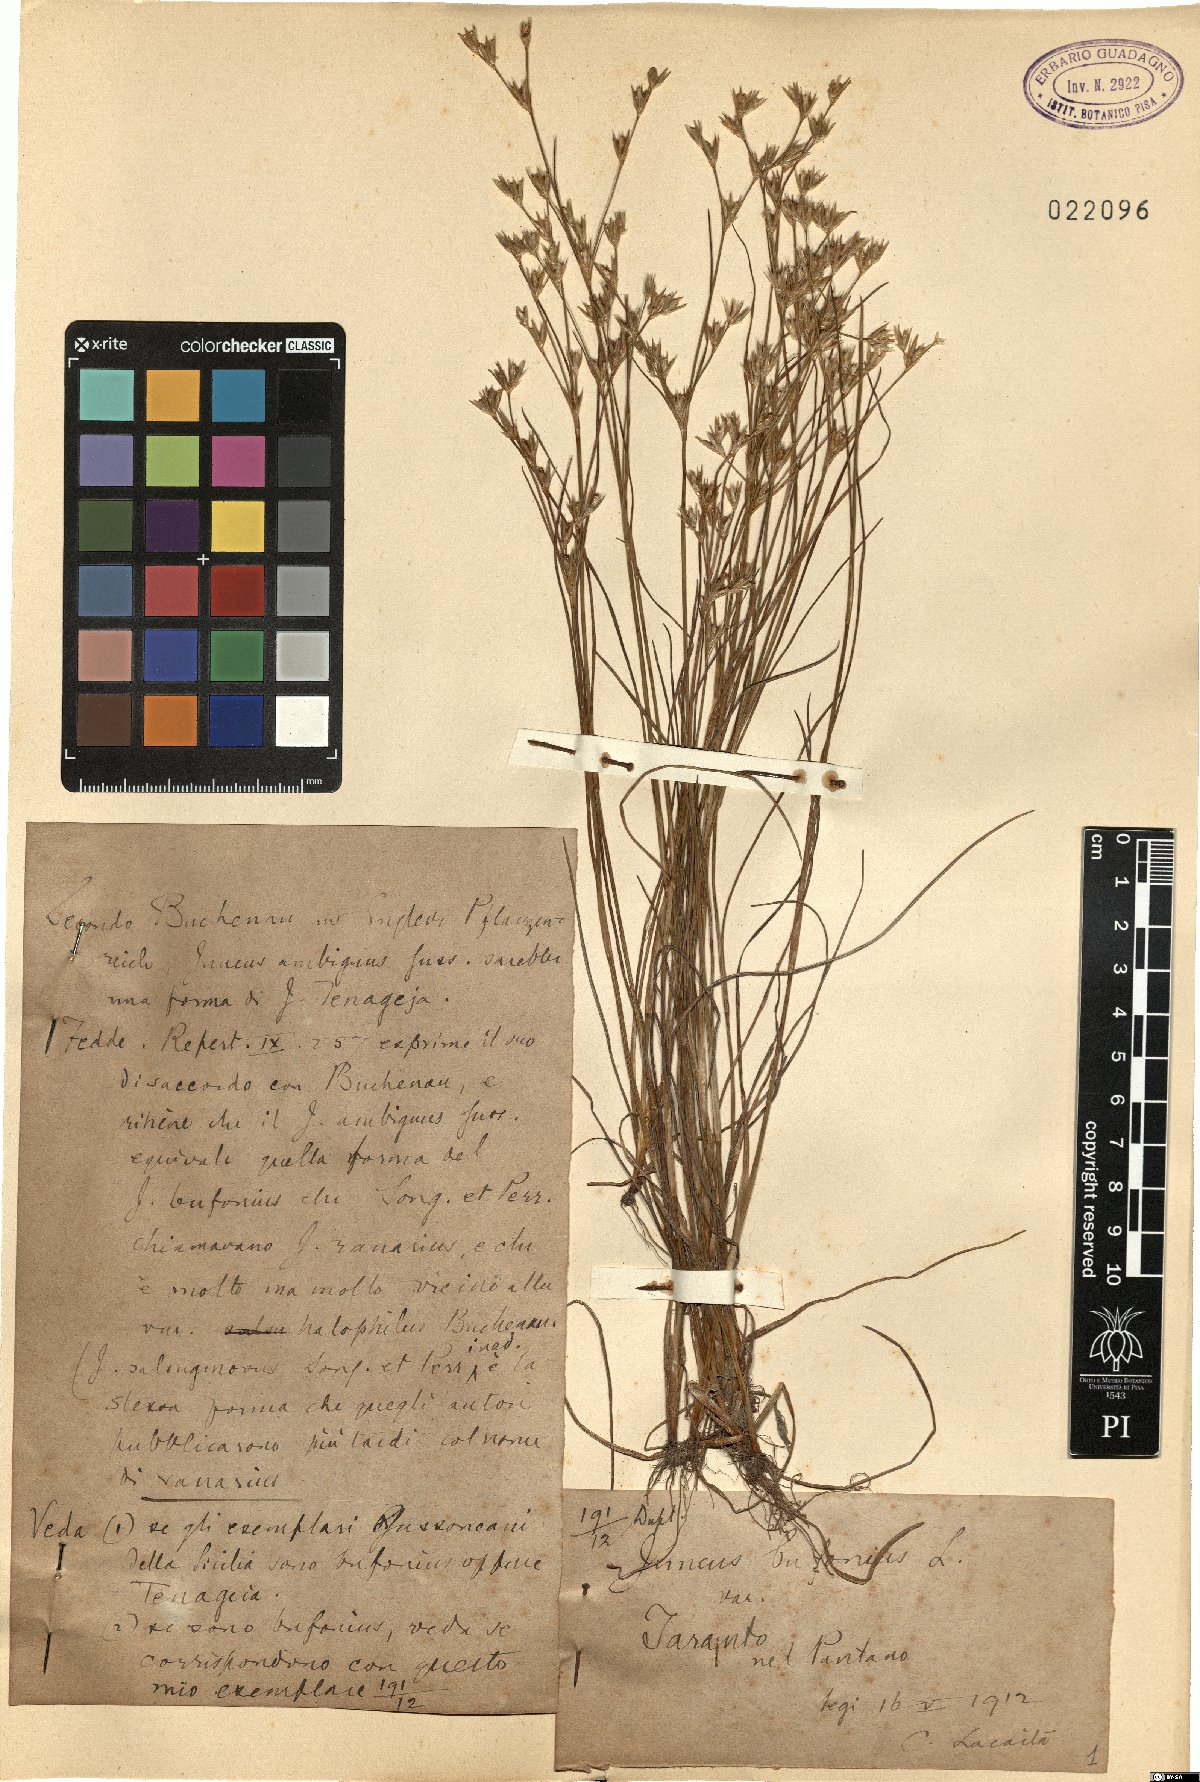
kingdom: Plantae
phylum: Tracheophyta
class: Liliopsida
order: Poales
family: Juncaceae
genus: Juncus
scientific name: Juncus bufonius
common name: Toad rush
